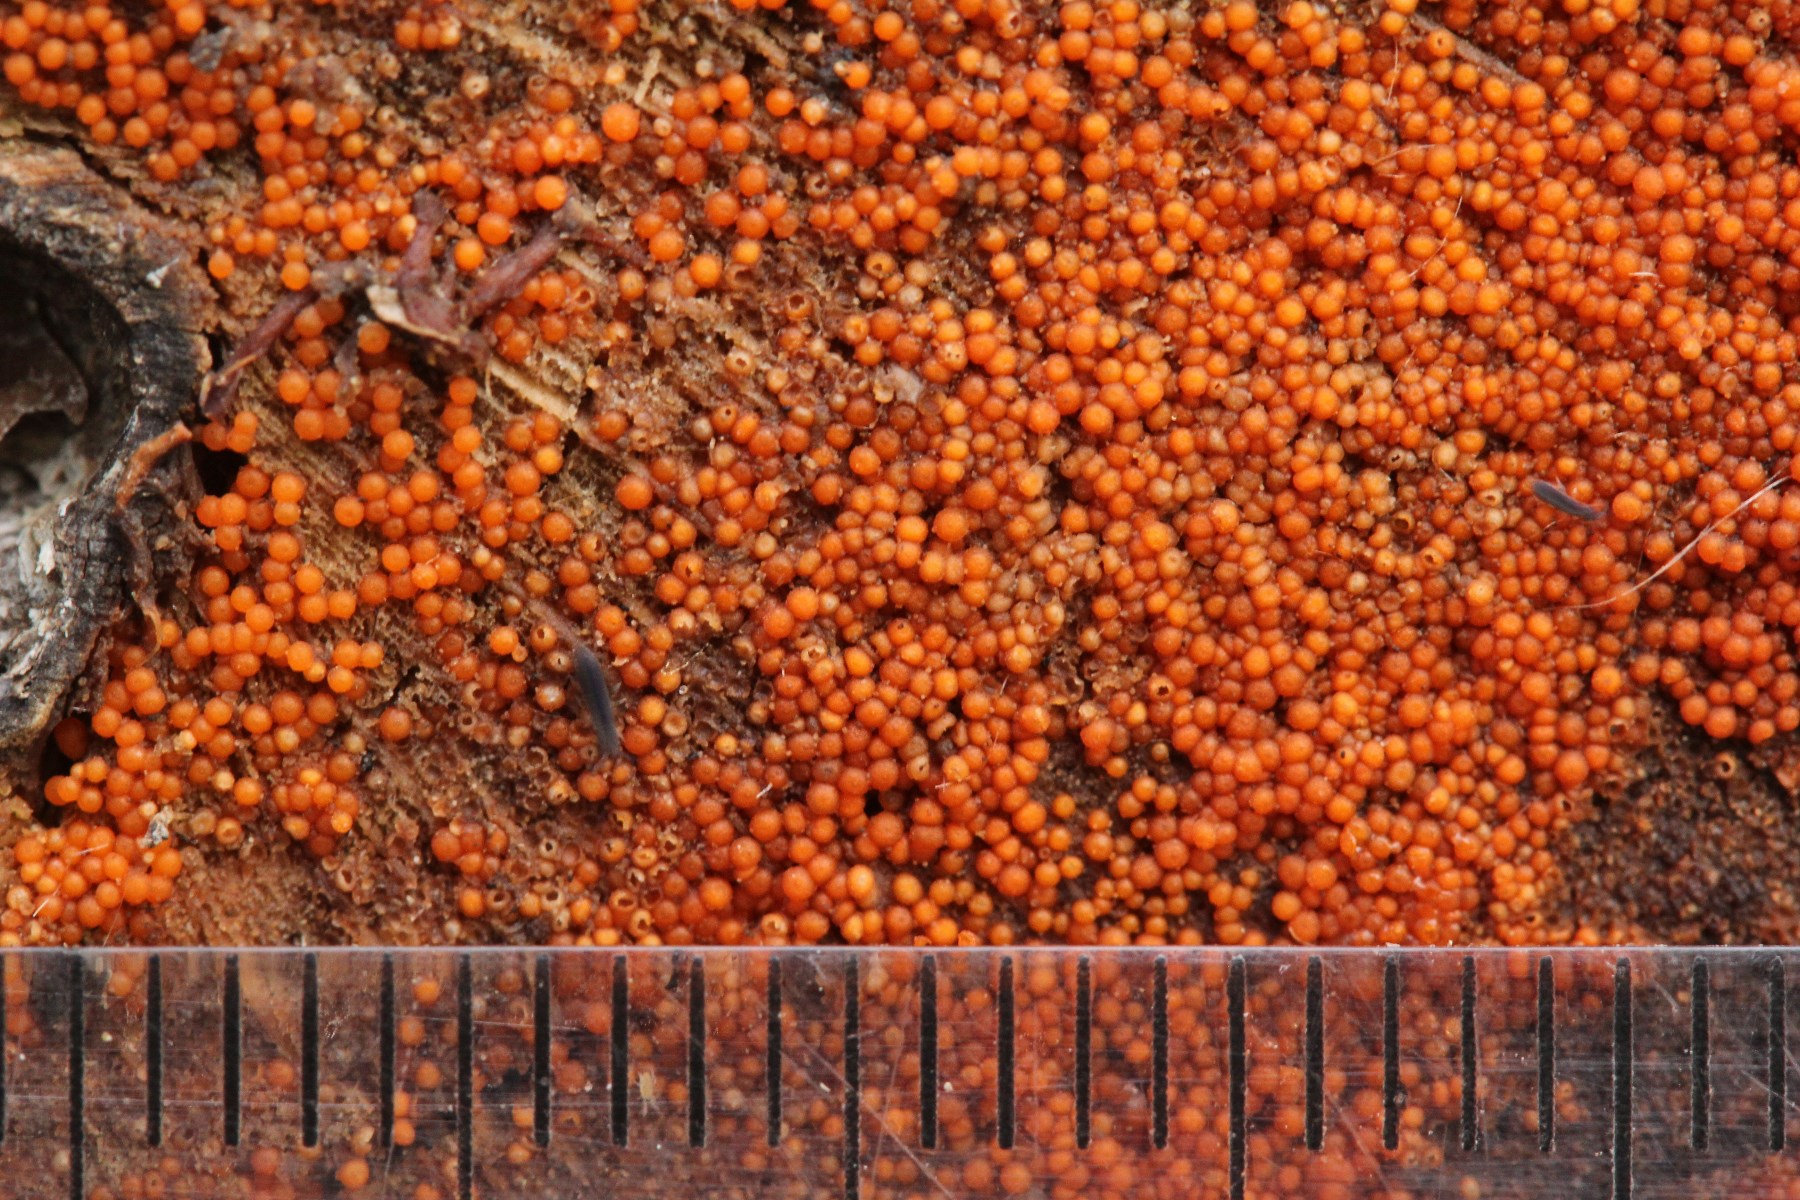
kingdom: Fungi
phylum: Ascomycota
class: Sordariomycetes
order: Hypocreales
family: Nectriaceae
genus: Hydropisphaera
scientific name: Hydropisphaera peziza
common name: skålformet gyldenkerne
